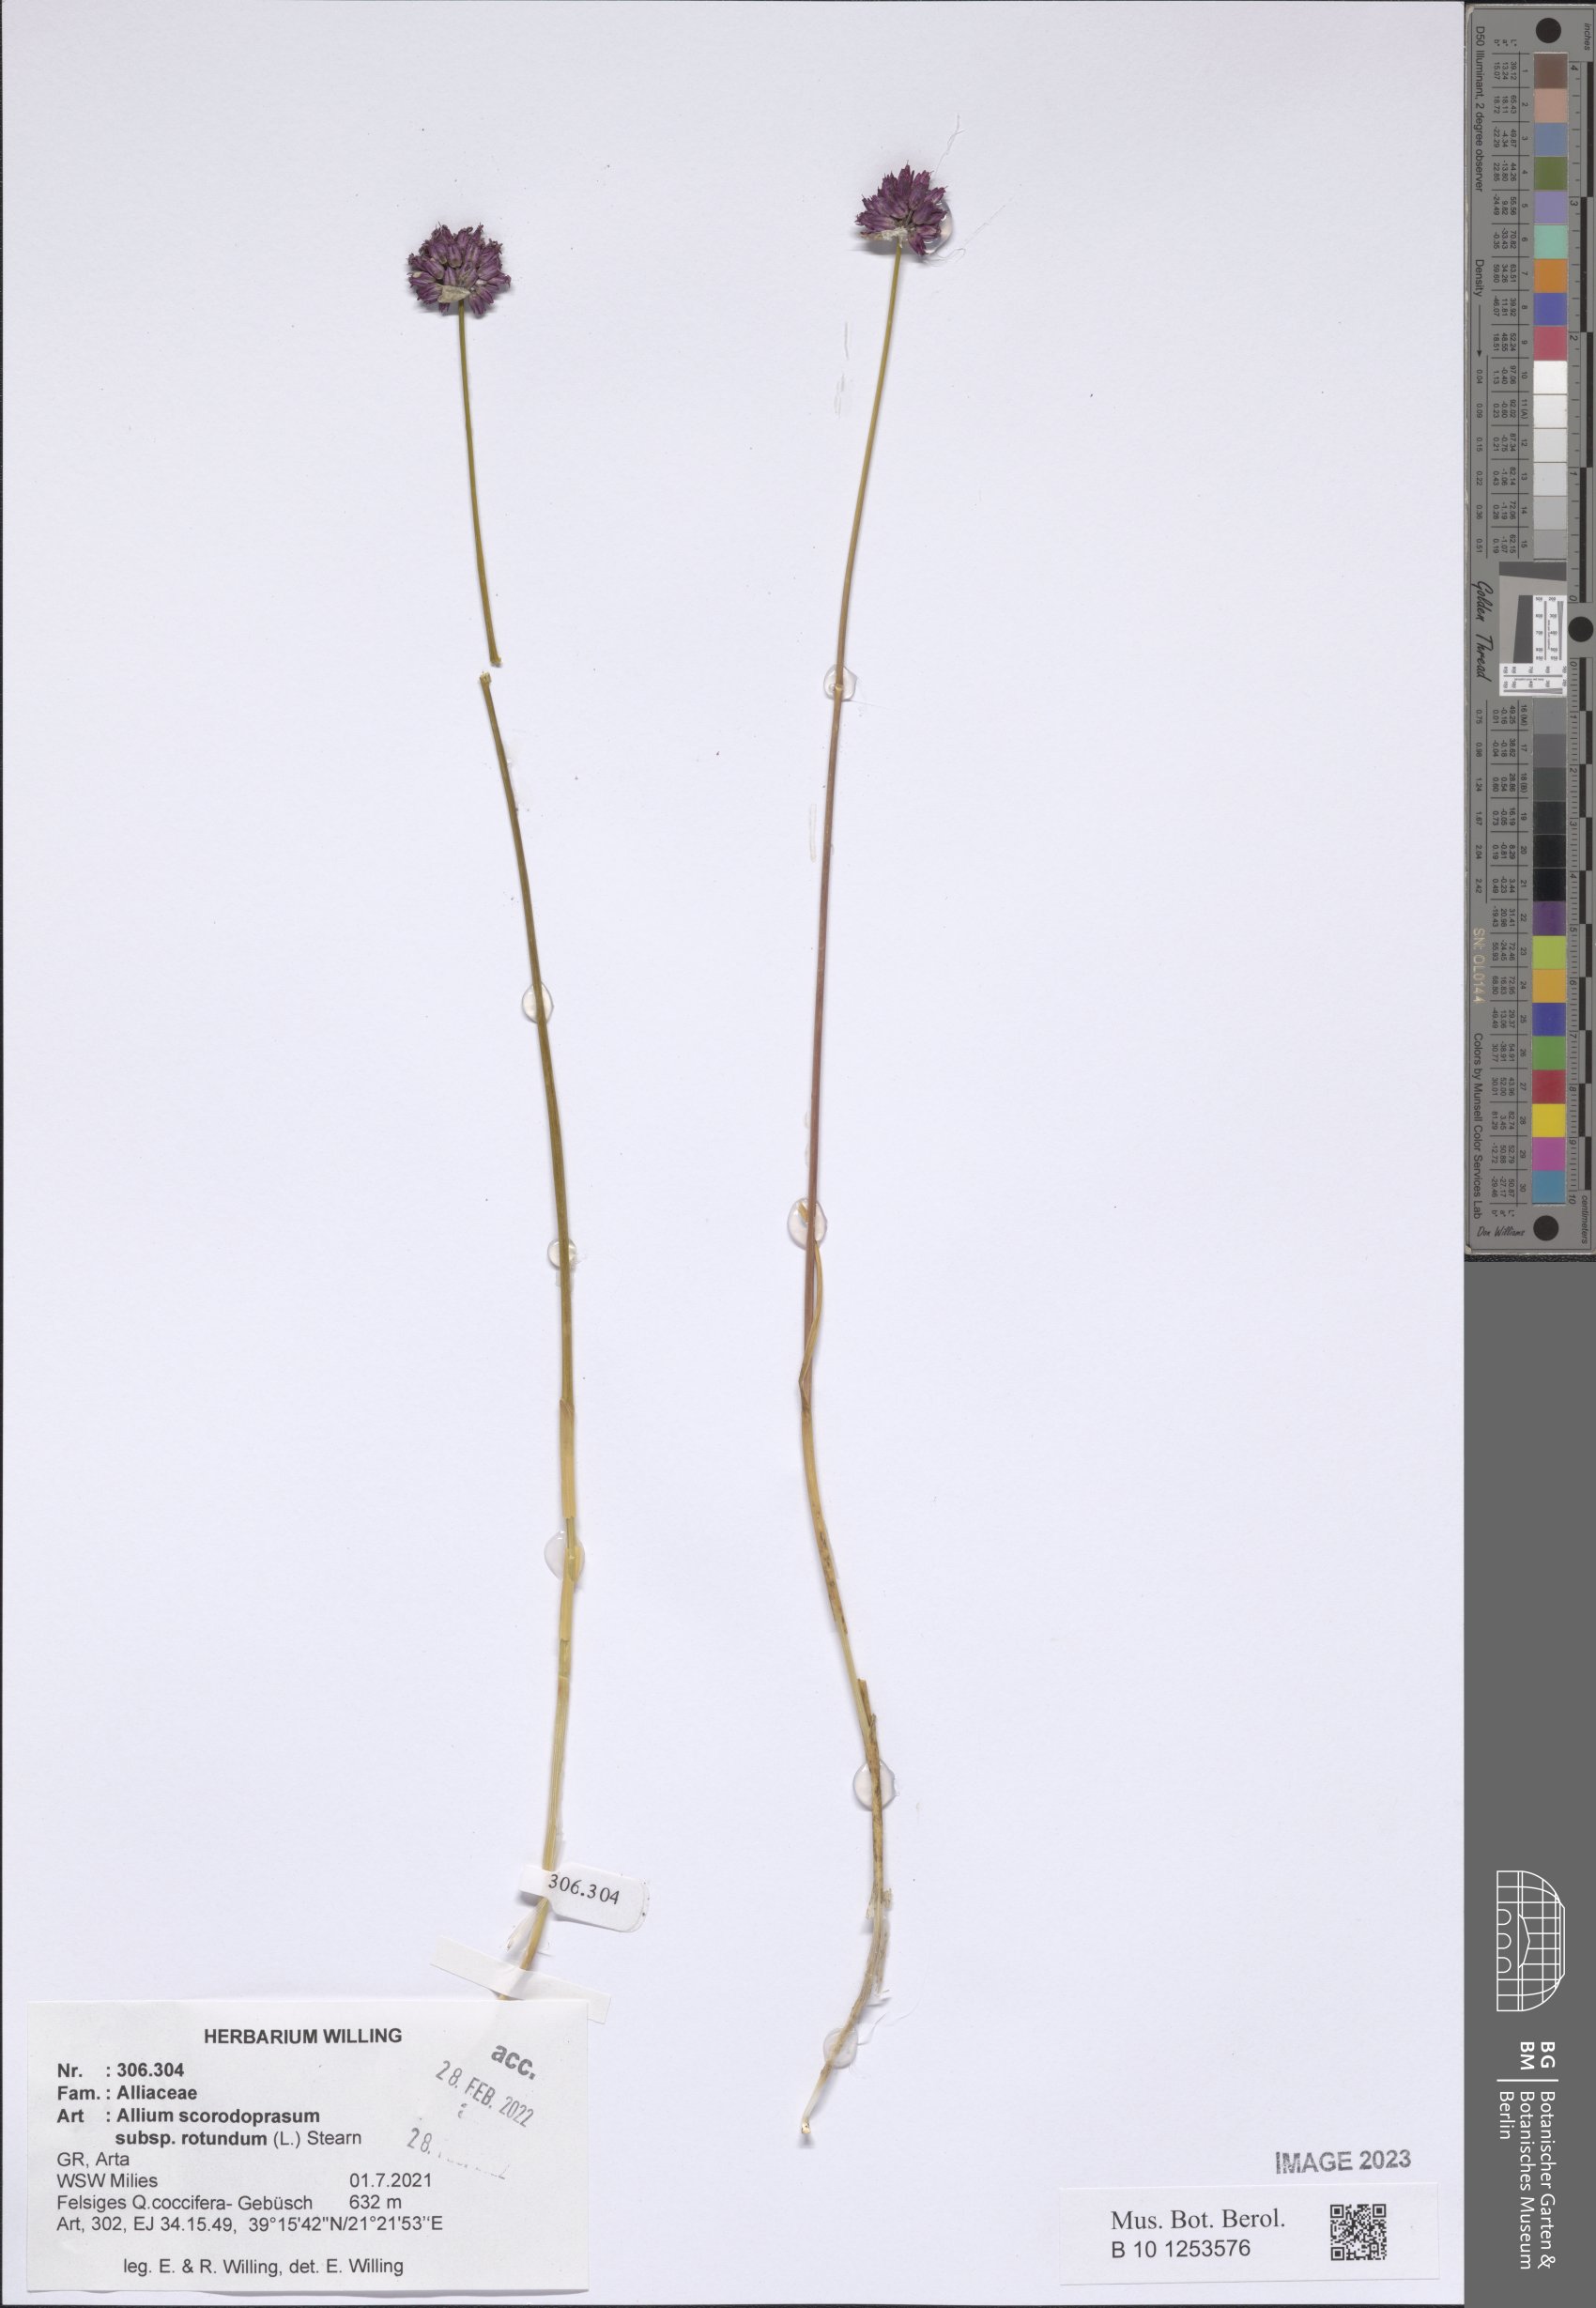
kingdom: Plantae
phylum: Tracheophyta
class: Liliopsida
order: Asparagales
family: Amaryllidaceae
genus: Allium
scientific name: Allium rotundum
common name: Sand leek
